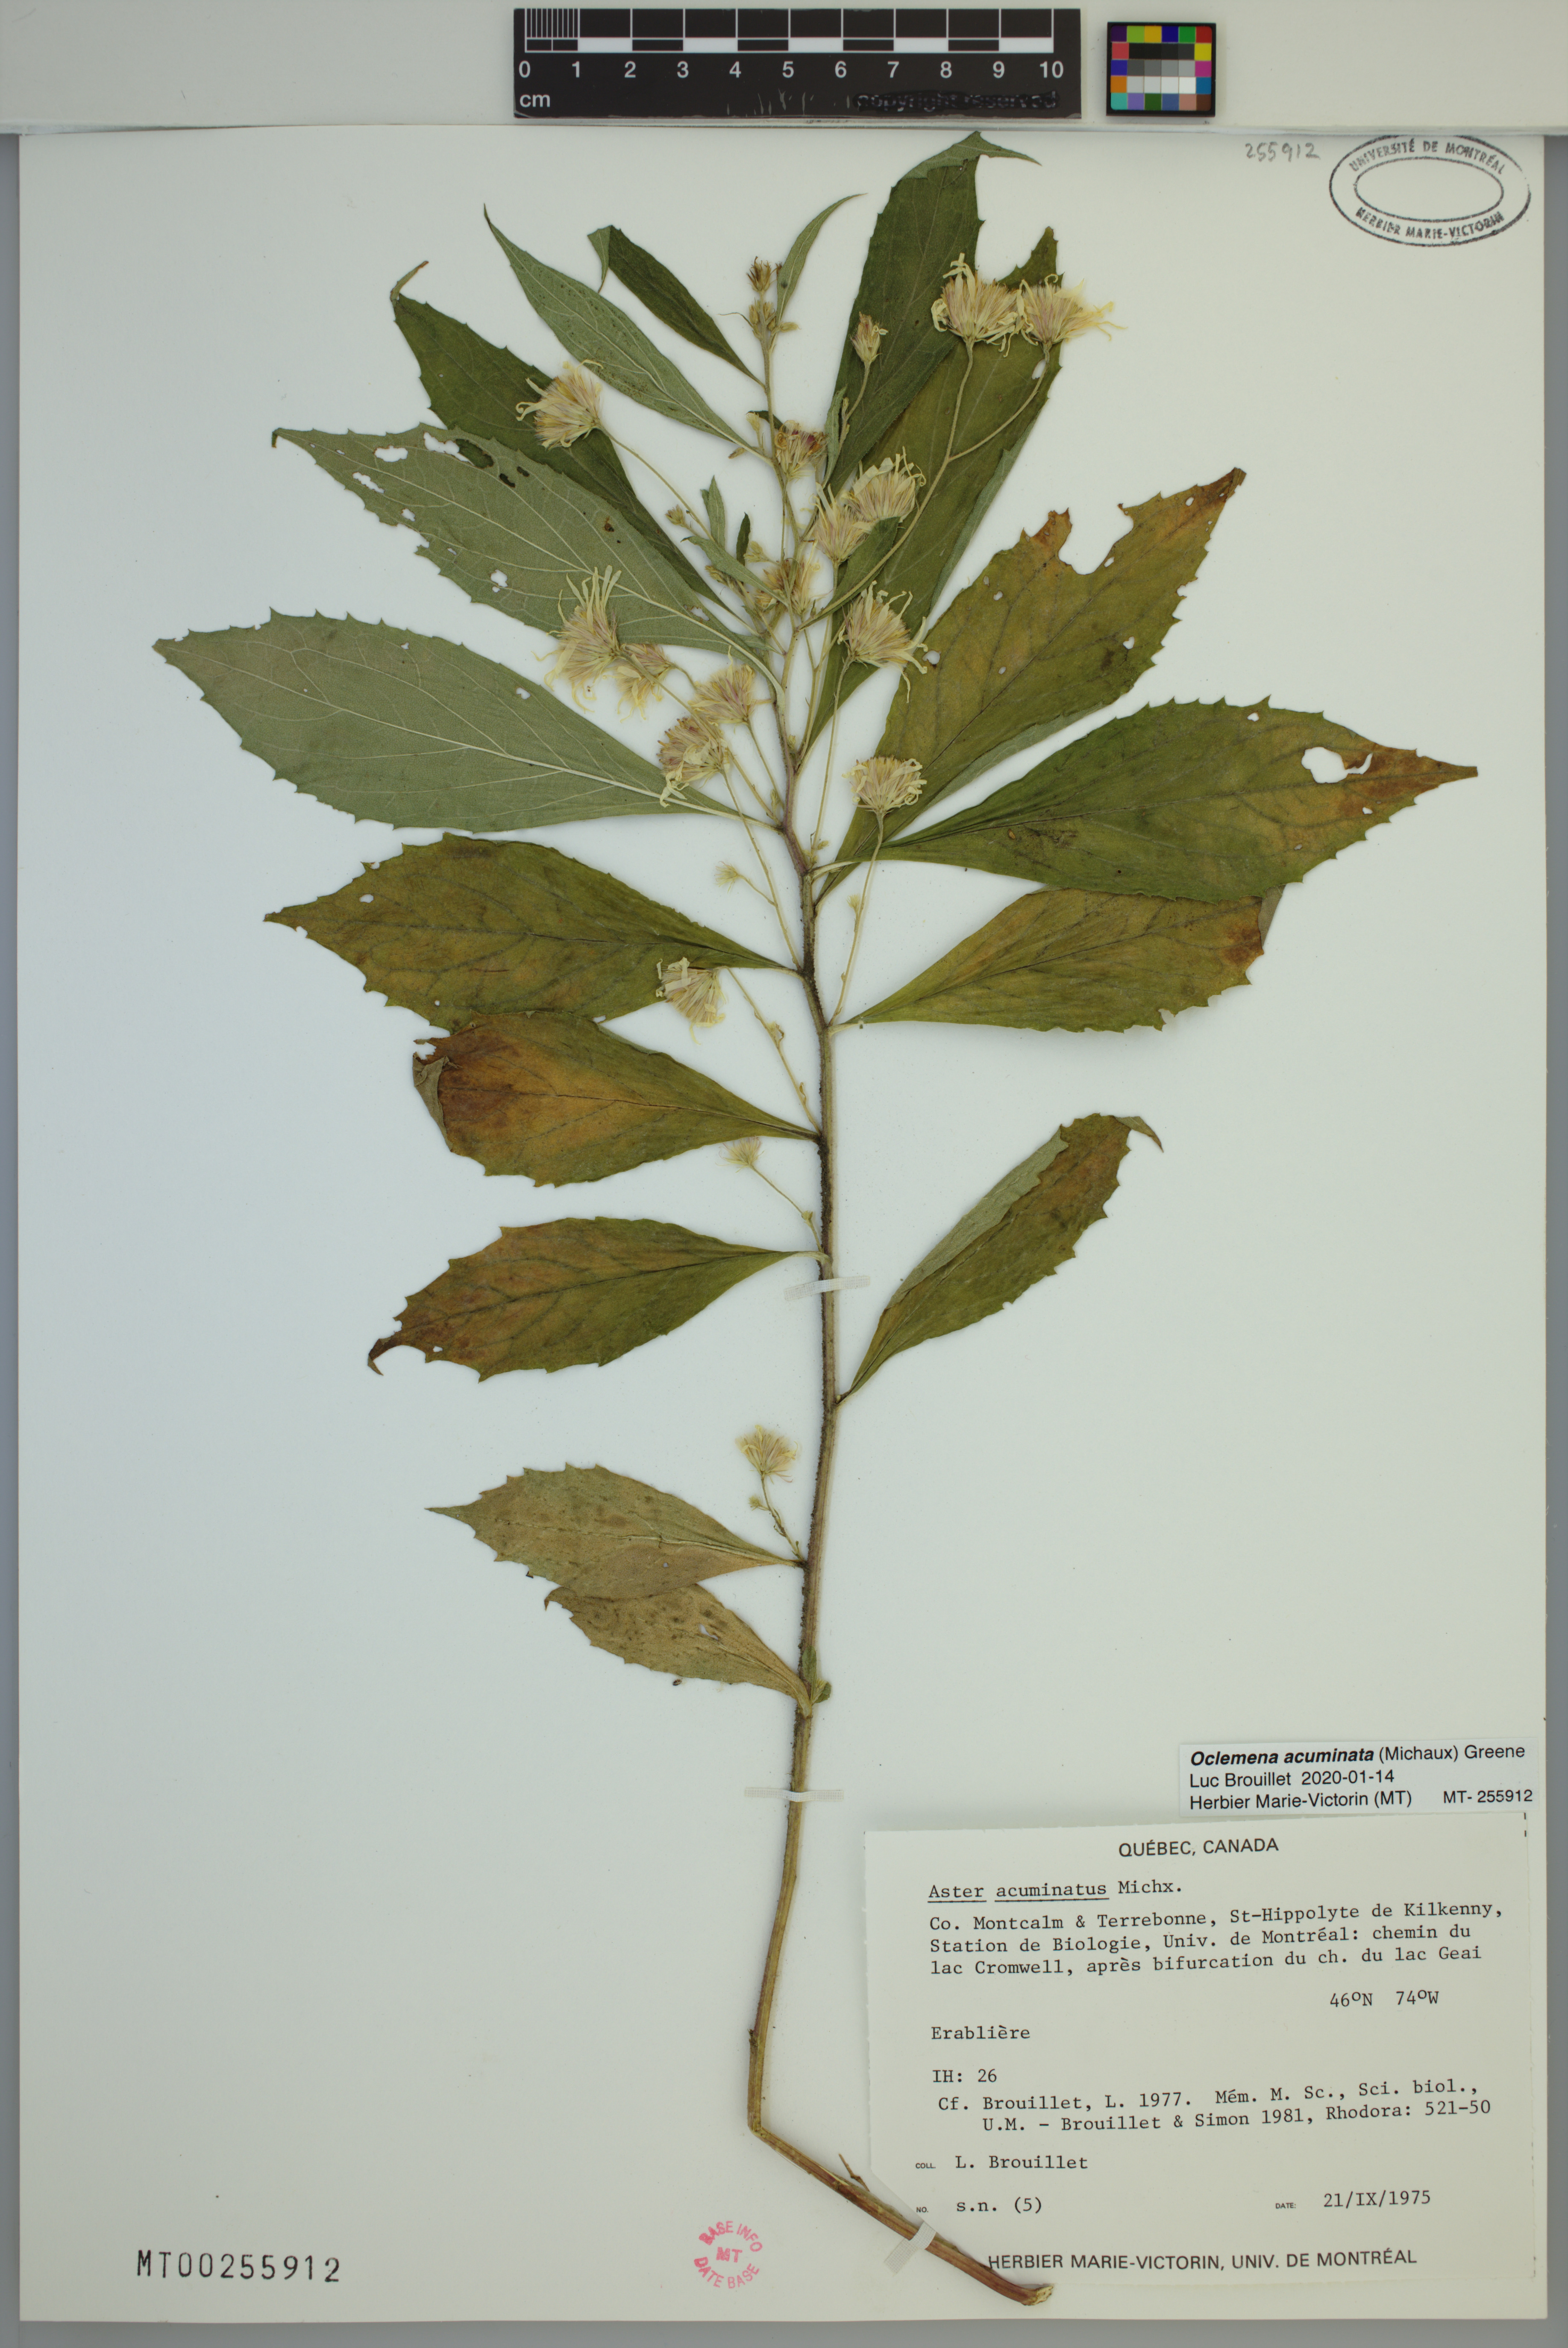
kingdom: Plantae
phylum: Tracheophyta
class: Magnoliopsida
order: Asterales
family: Asteraceae
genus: Oclemena
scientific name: Oclemena acuminata
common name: Mountain aster
